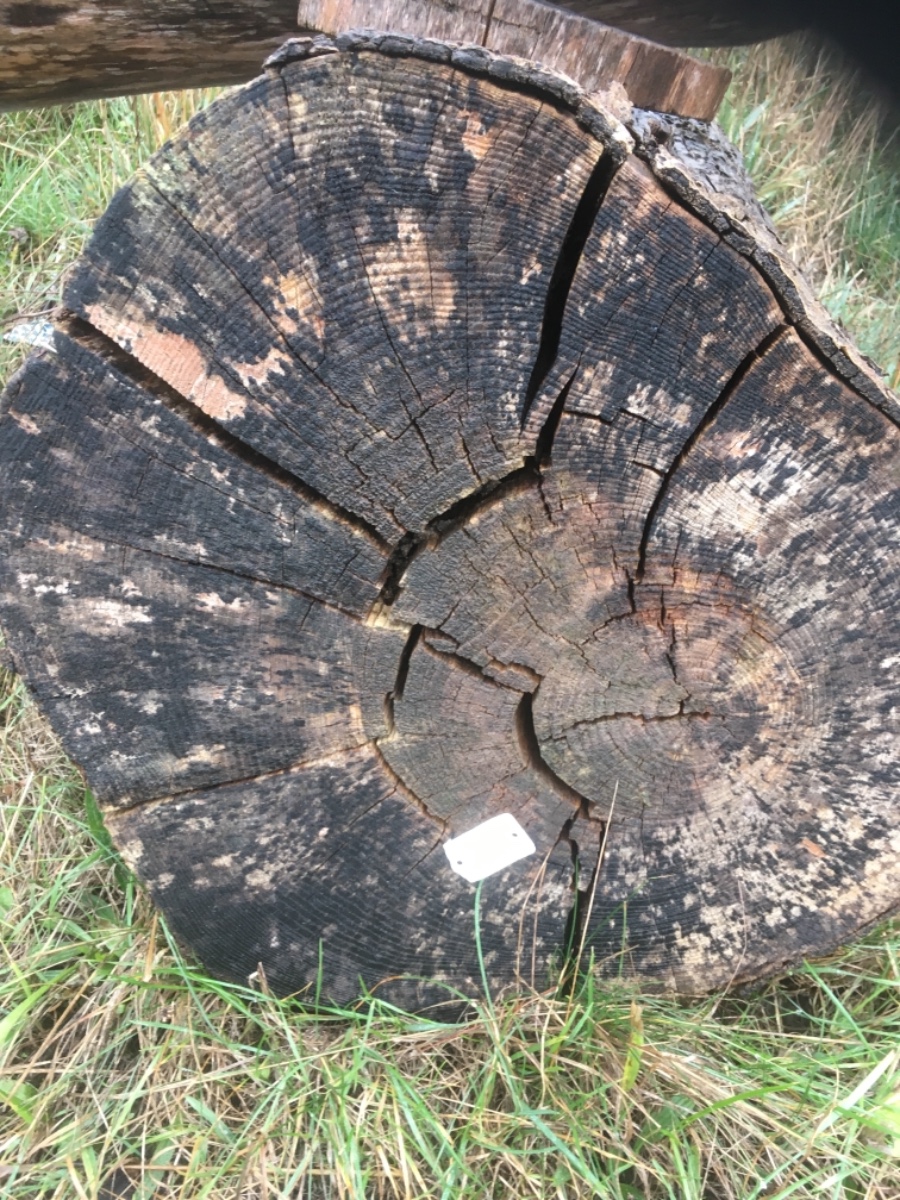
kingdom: Fungi
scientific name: Fungi
